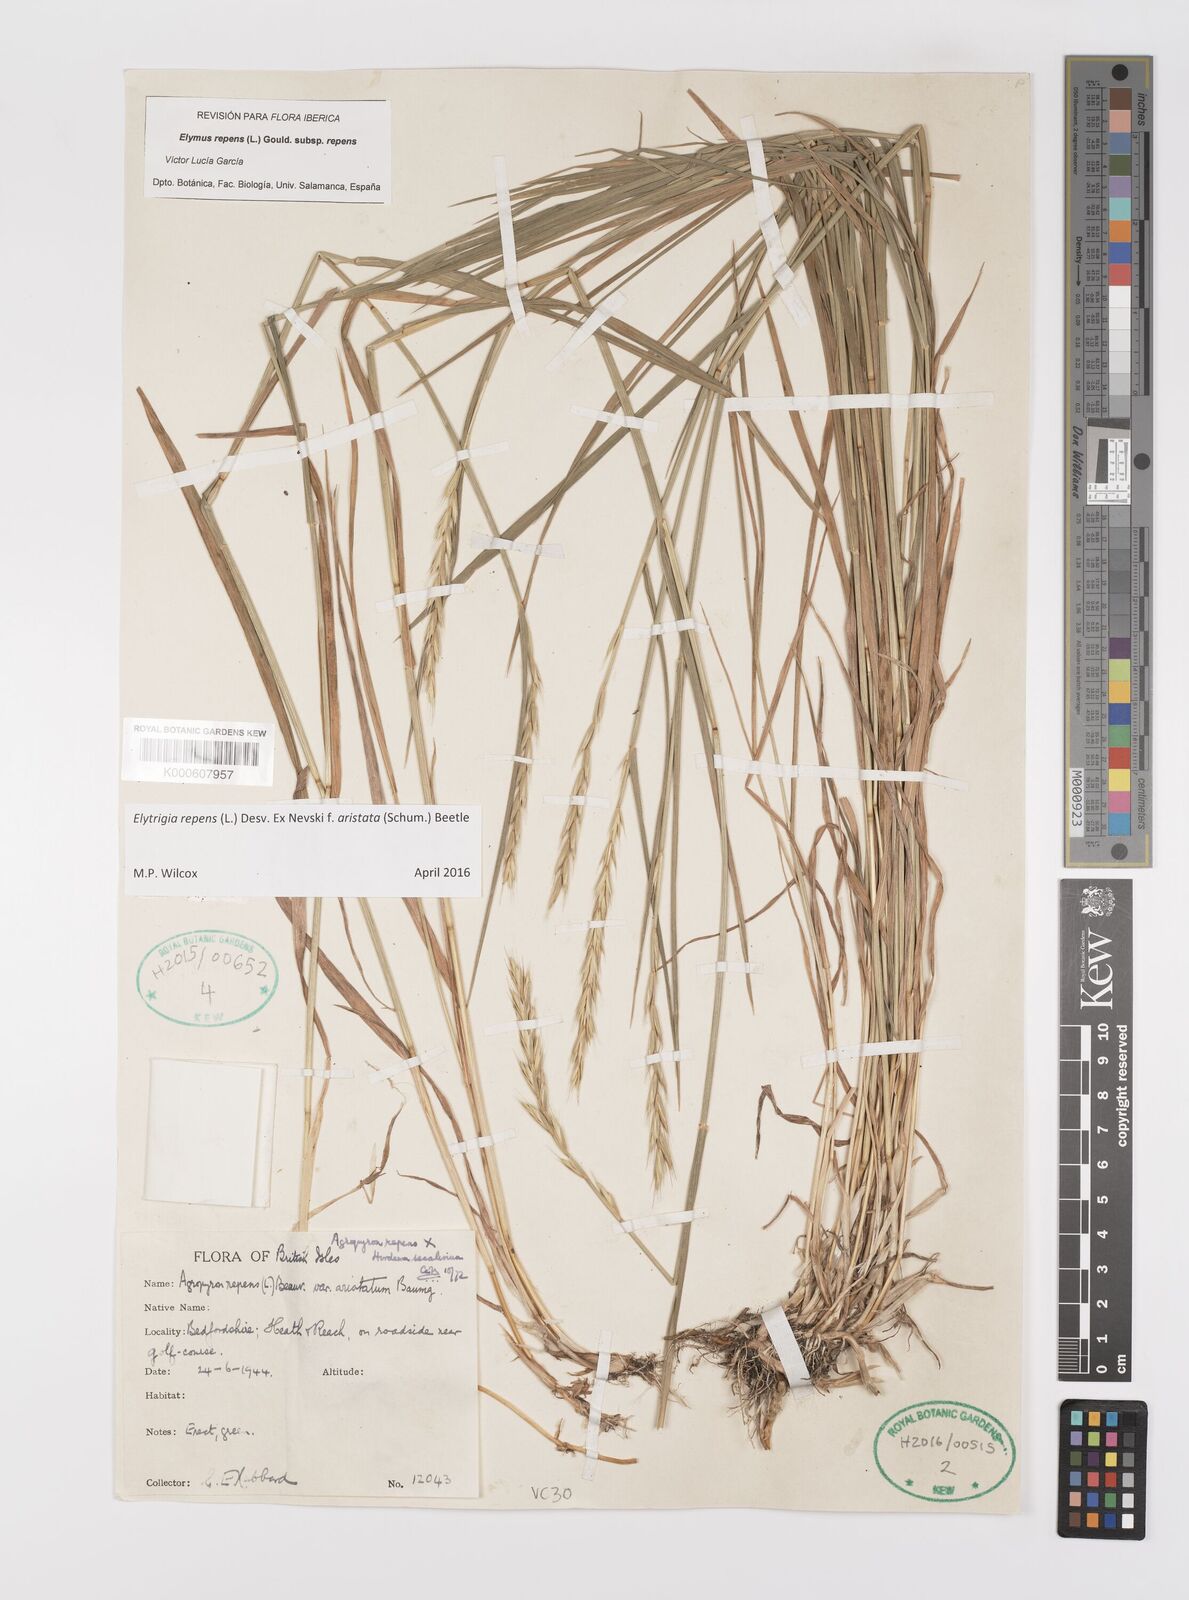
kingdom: Plantae
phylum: Tracheophyta
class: Liliopsida
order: Poales
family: Poaceae
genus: Elymus
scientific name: Elymus repens
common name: Quackgrass
